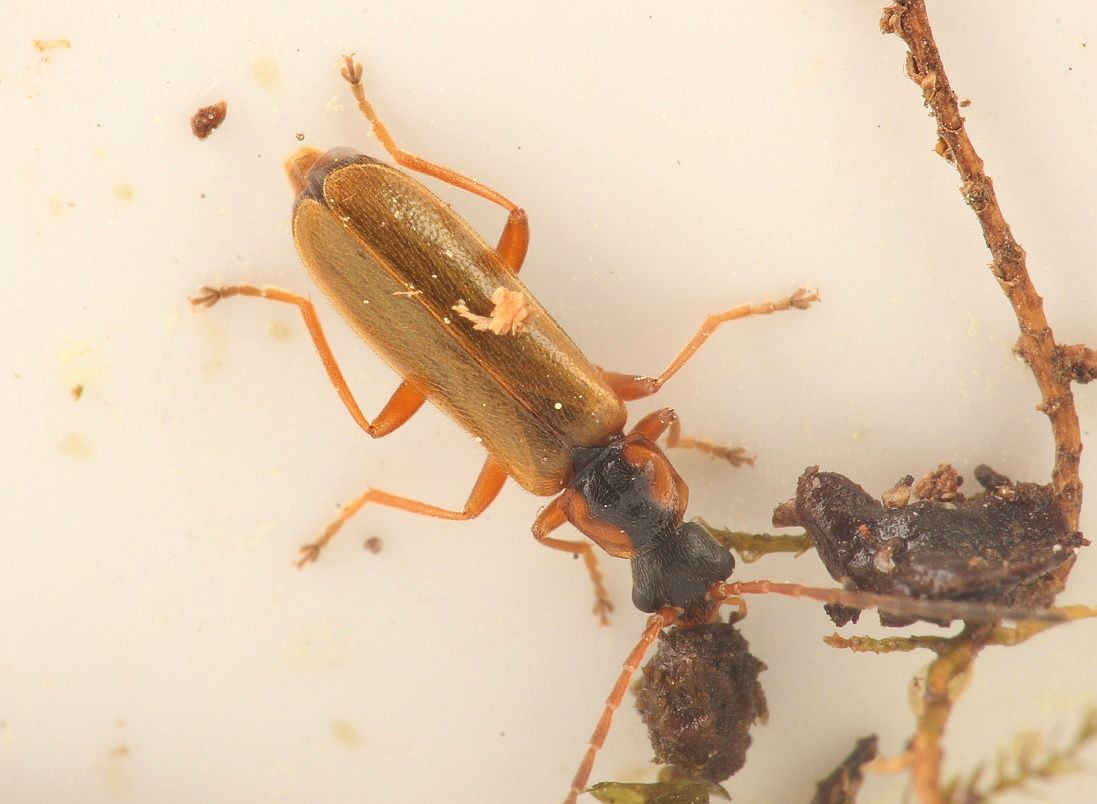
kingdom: Animalia
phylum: Arthropoda
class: Insecta
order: Coleoptera
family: Cantharidae
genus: Rhagonycha
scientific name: Rhagonycha testacea
